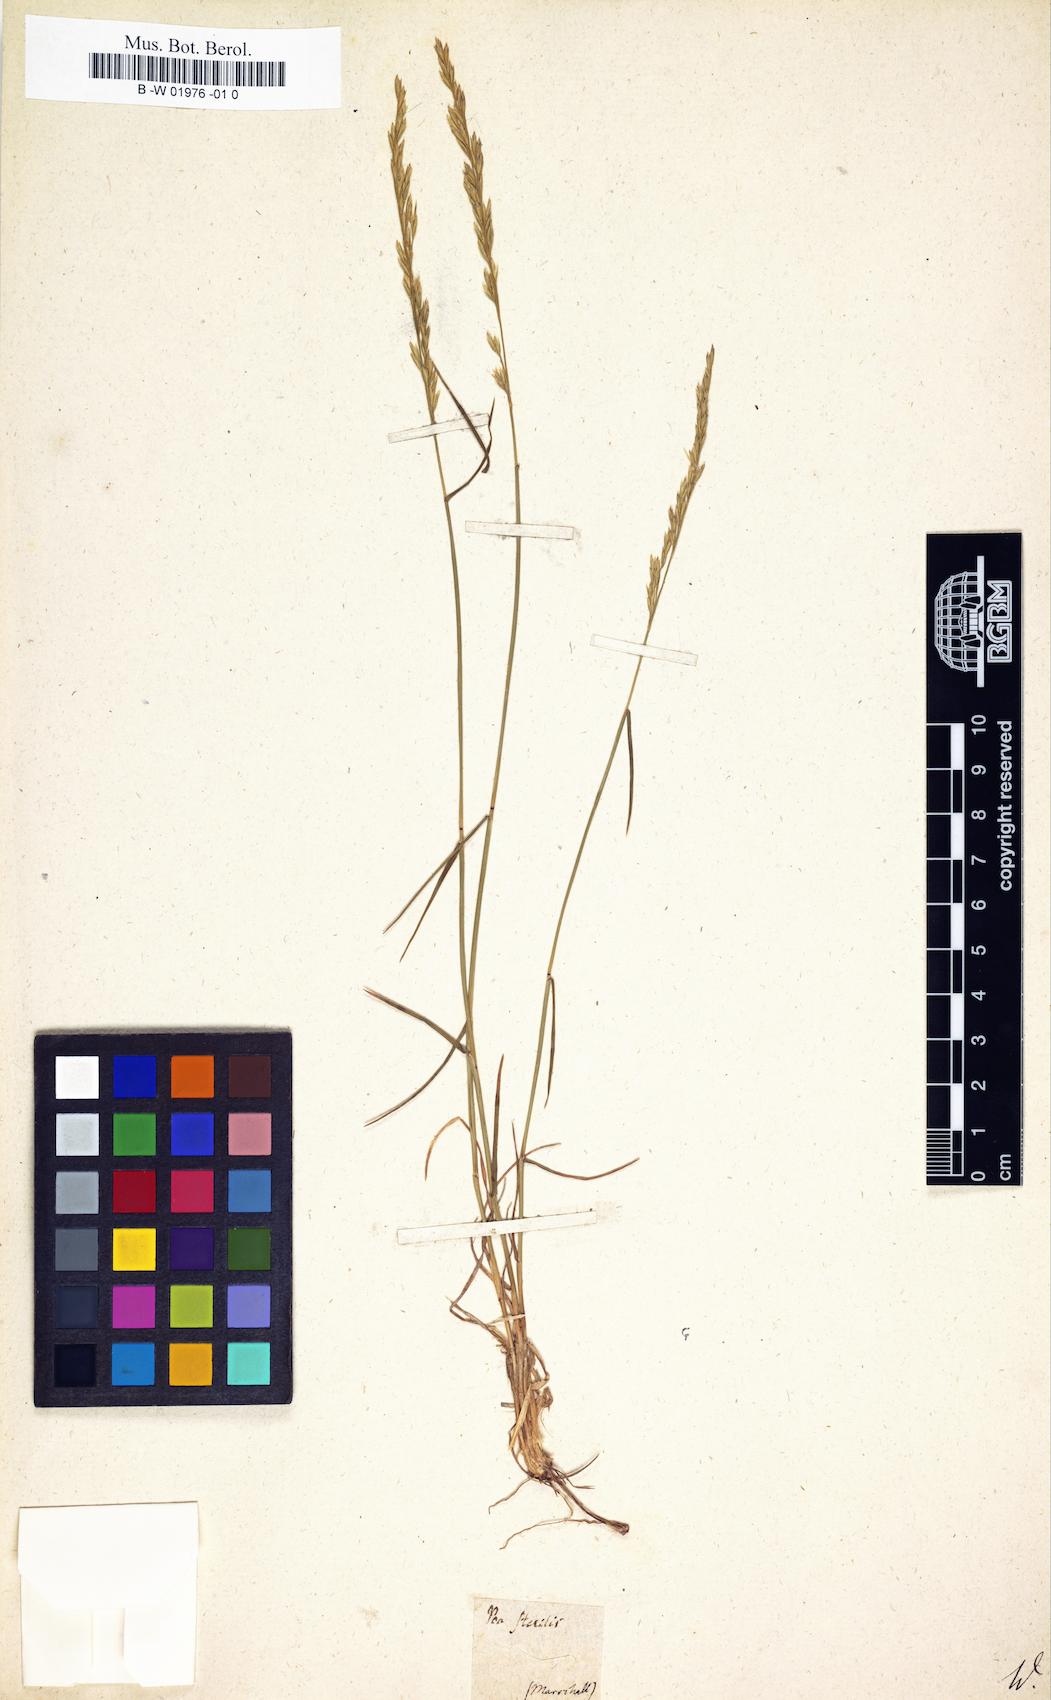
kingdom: Plantae
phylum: Tracheophyta
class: Liliopsida
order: Poales
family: Poaceae
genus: Poa
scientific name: Poa sterilis
